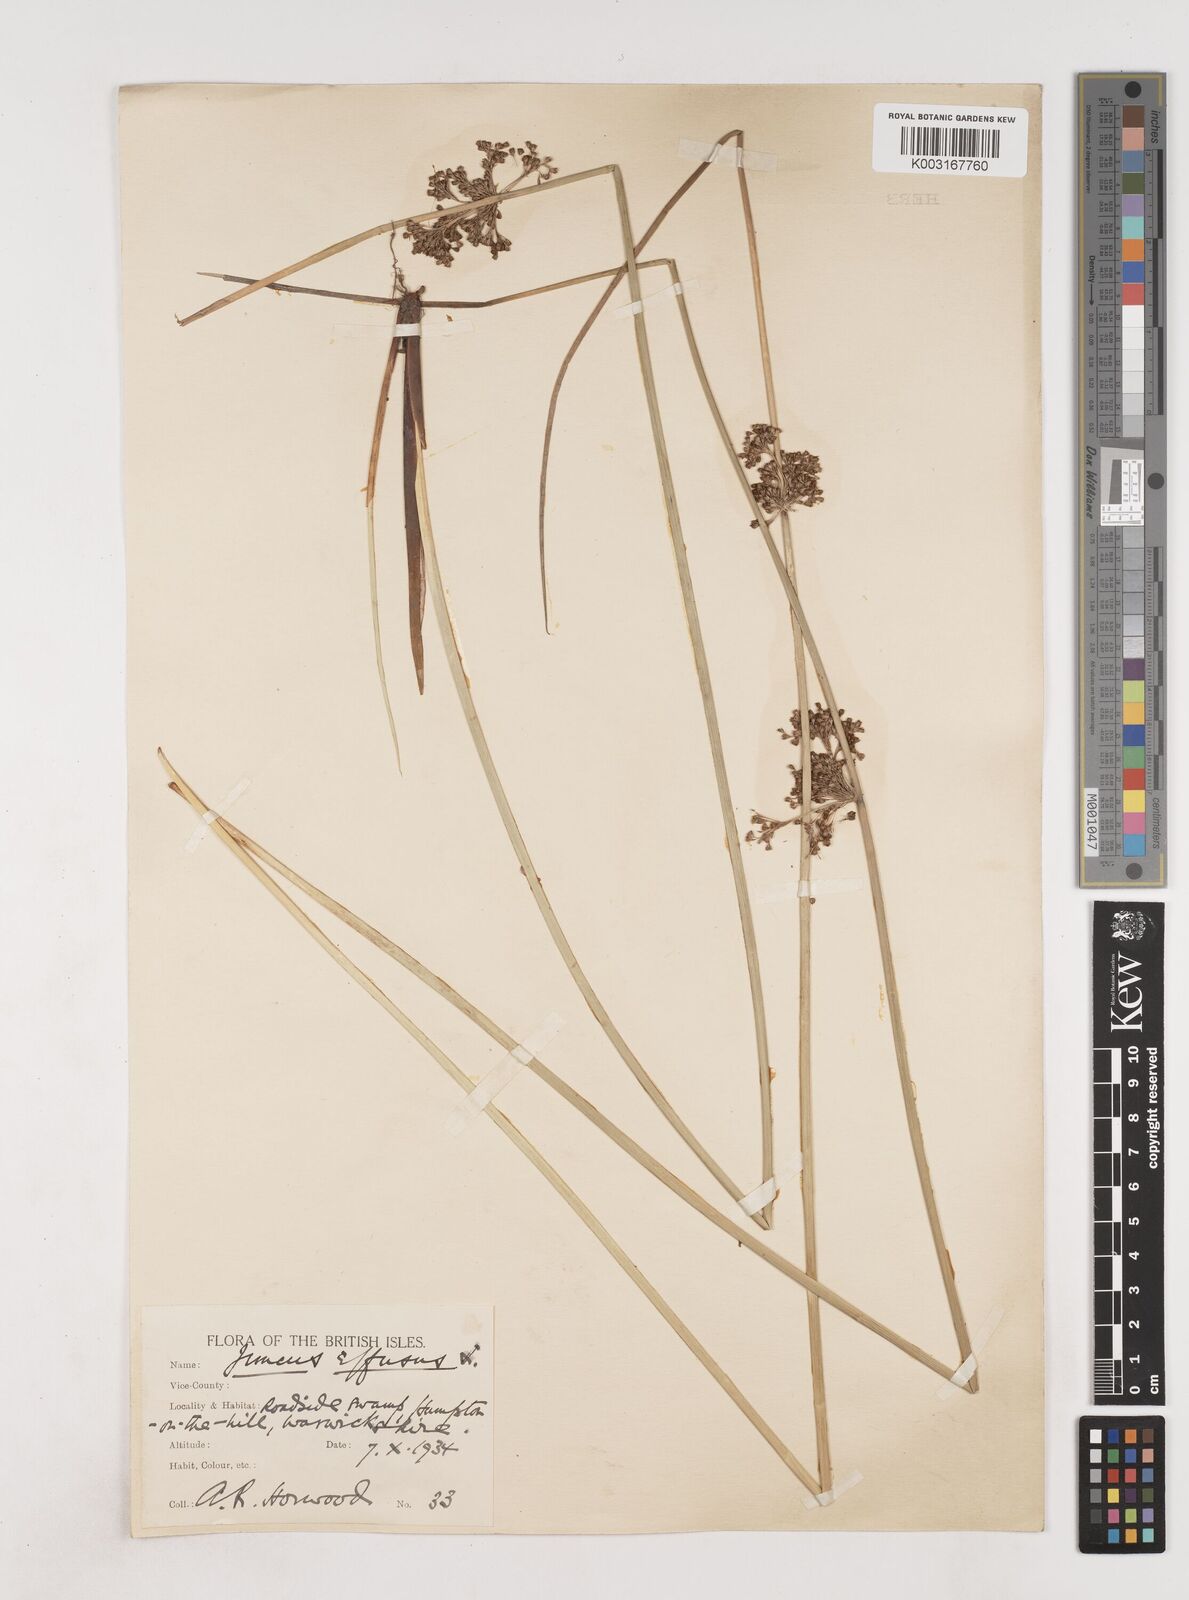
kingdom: Plantae
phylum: Tracheophyta
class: Liliopsida
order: Poales
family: Juncaceae
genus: Juncus
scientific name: Juncus effusus
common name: Soft rush
